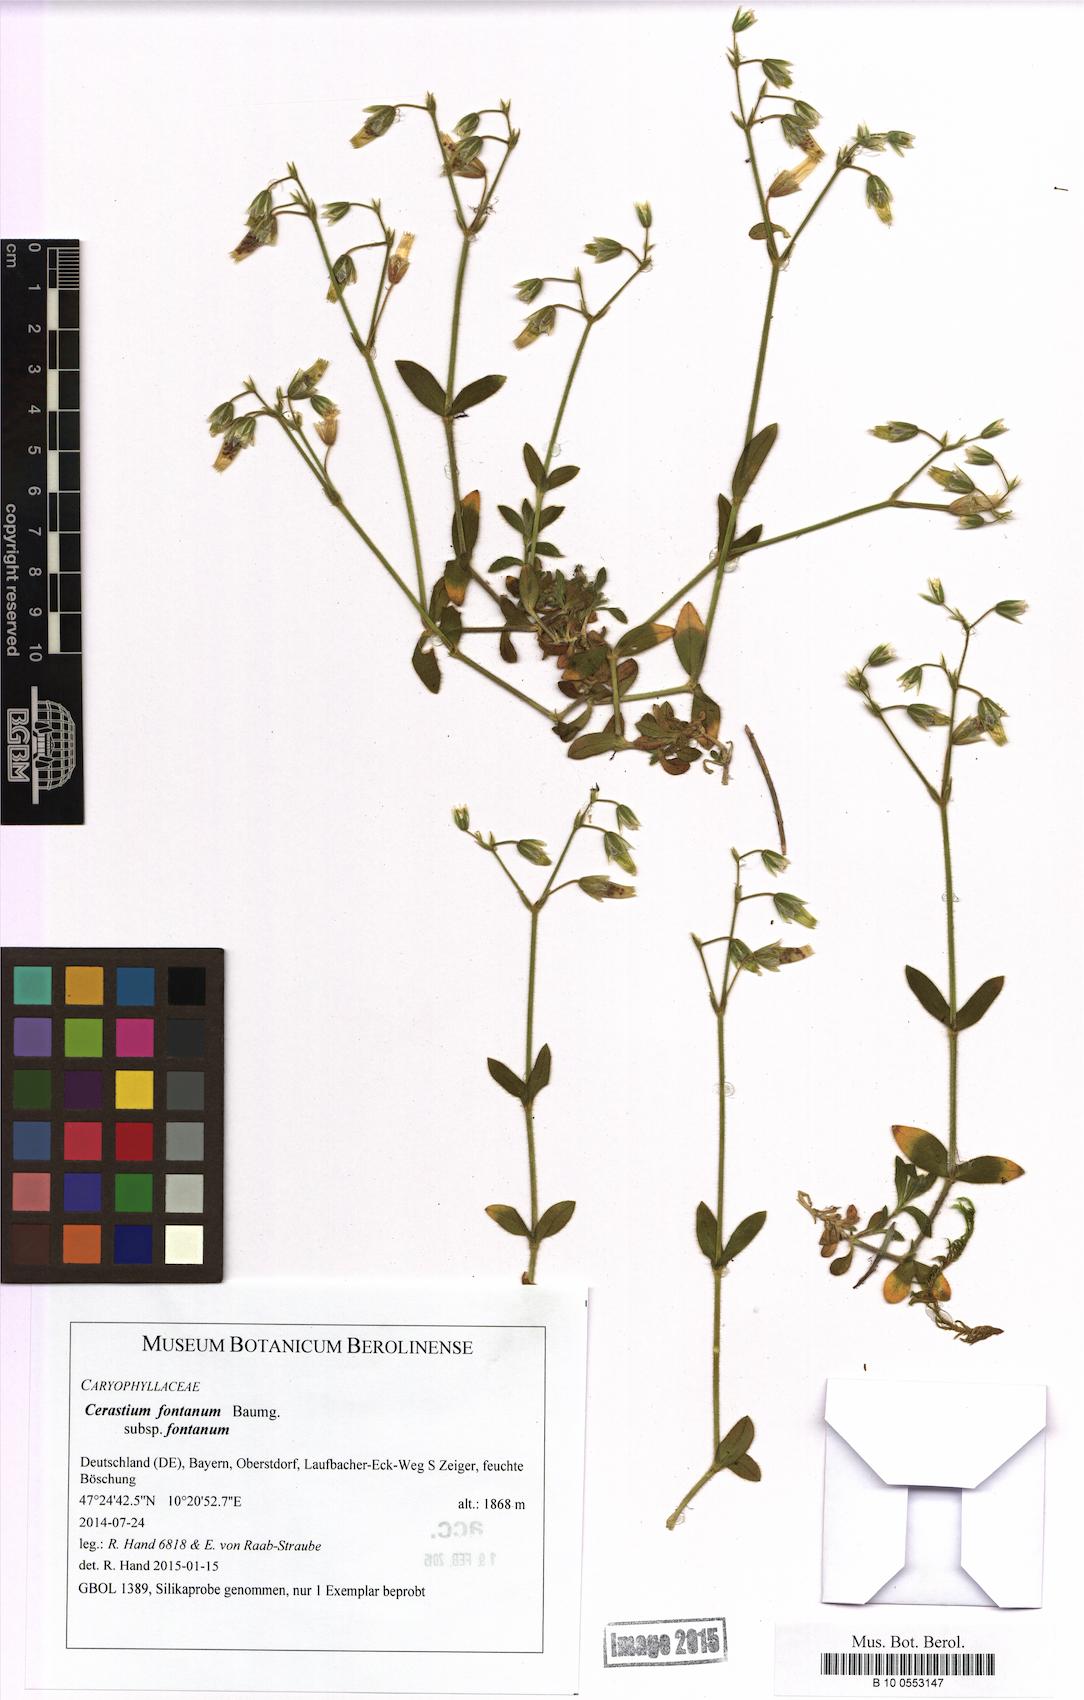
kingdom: Plantae
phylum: Tracheophyta
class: Magnoliopsida
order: Caryophyllales
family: Caryophyllaceae
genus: Cerastium
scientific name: Cerastium fontanum
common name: Common mouse-ear
